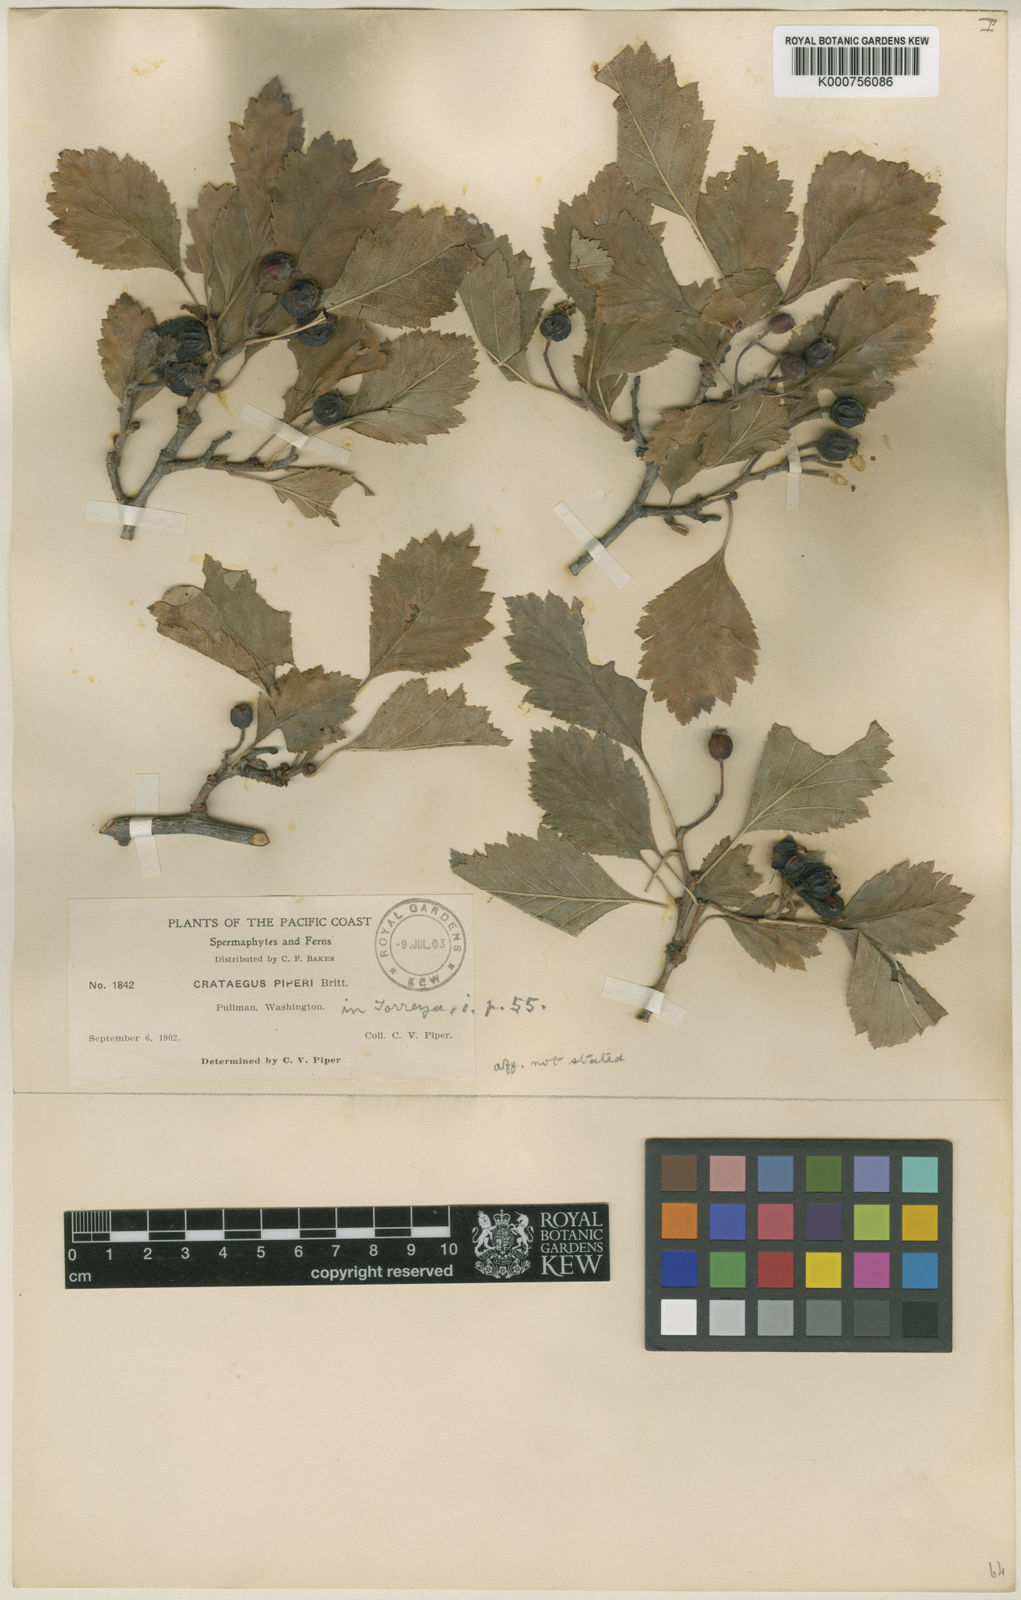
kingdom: Plantae
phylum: Tracheophyta
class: Magnoliopsida
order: Rosales
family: Rosaceae
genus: Crataegus
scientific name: Crataegus piperi
